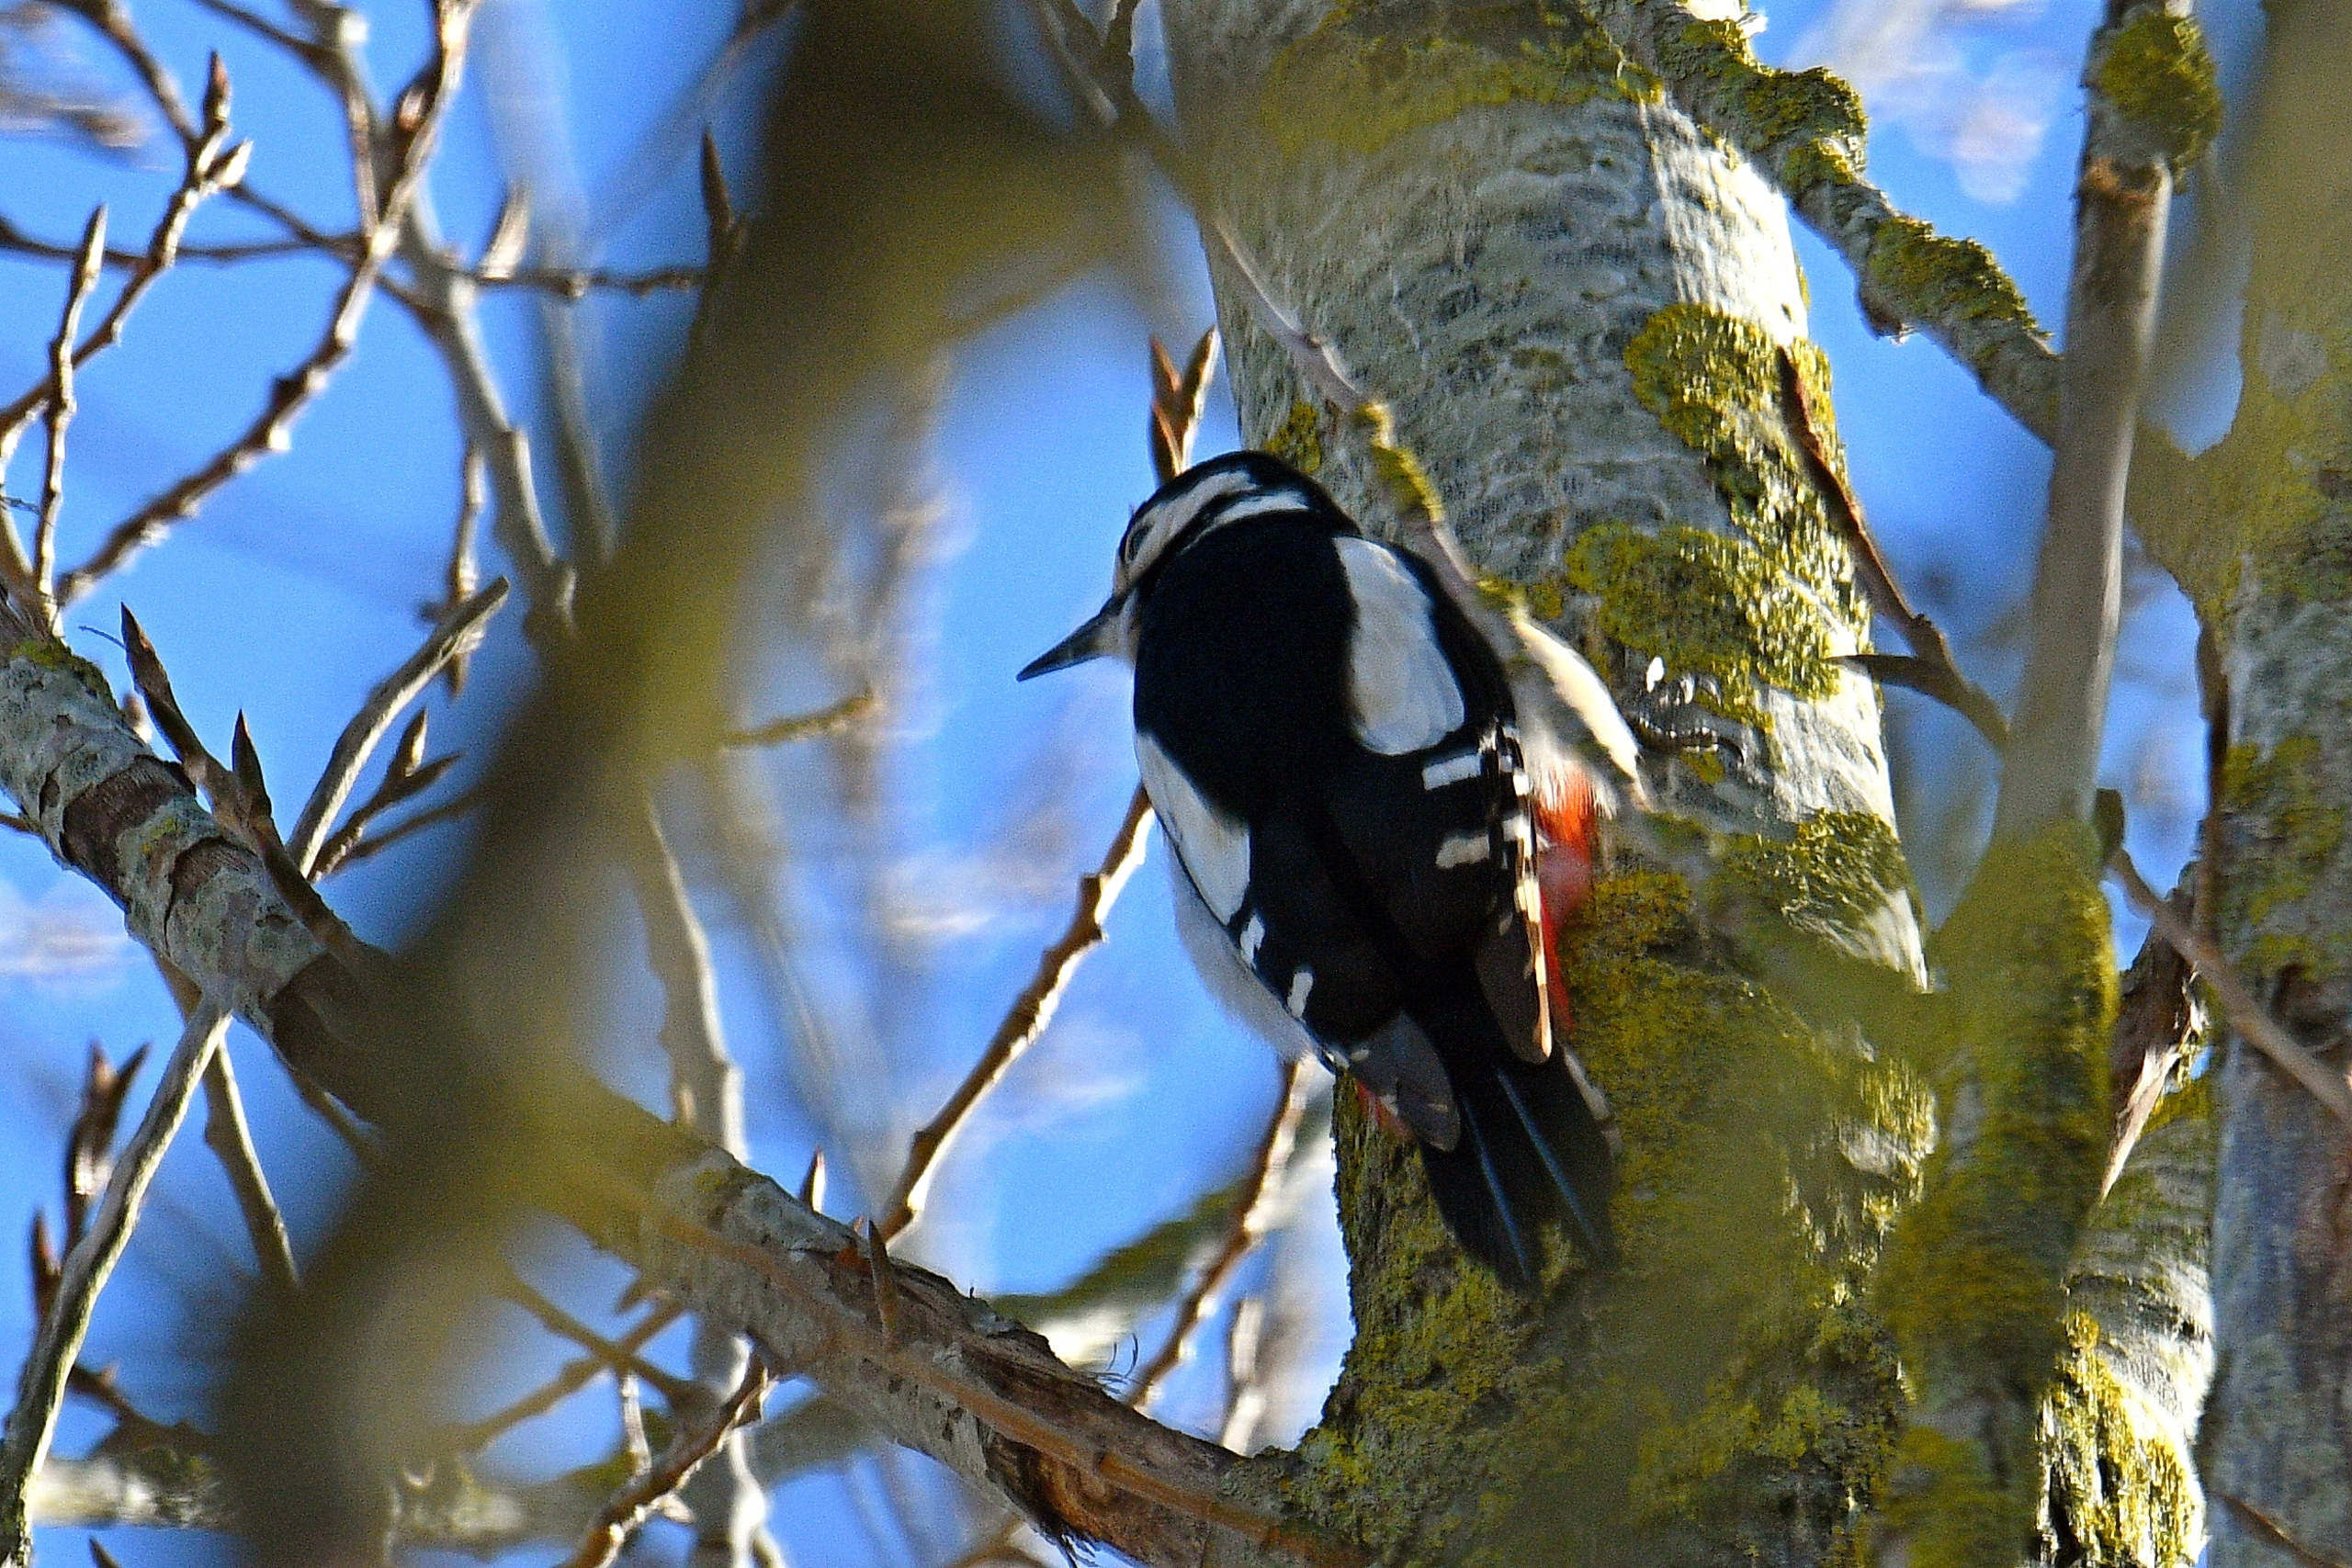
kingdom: Animalia
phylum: Chordata
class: Aves
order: Piciformes
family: Picidae
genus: Dendrocopos
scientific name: Dendrocopos major
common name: Stor flagspætte
